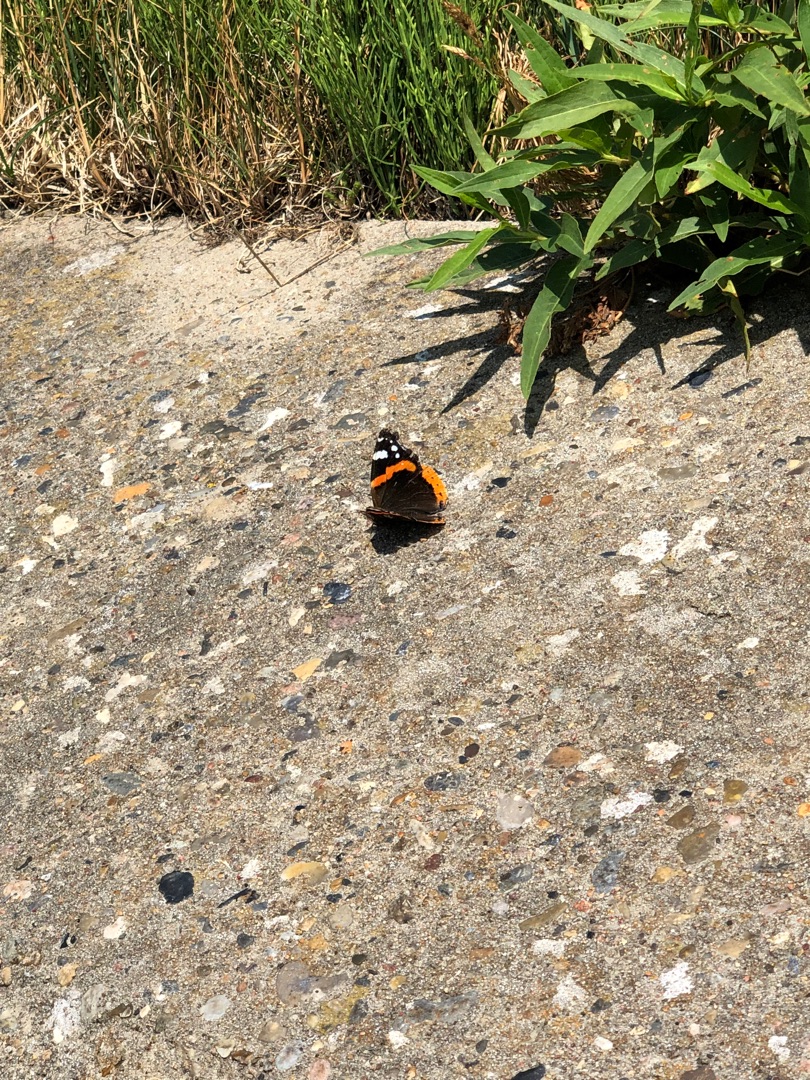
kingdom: Animalia
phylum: Arthropoda
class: Insecta
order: Lepidoptera
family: Nymphalidae
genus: Vanessa
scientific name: Vanessa atalanta
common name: Admiral
